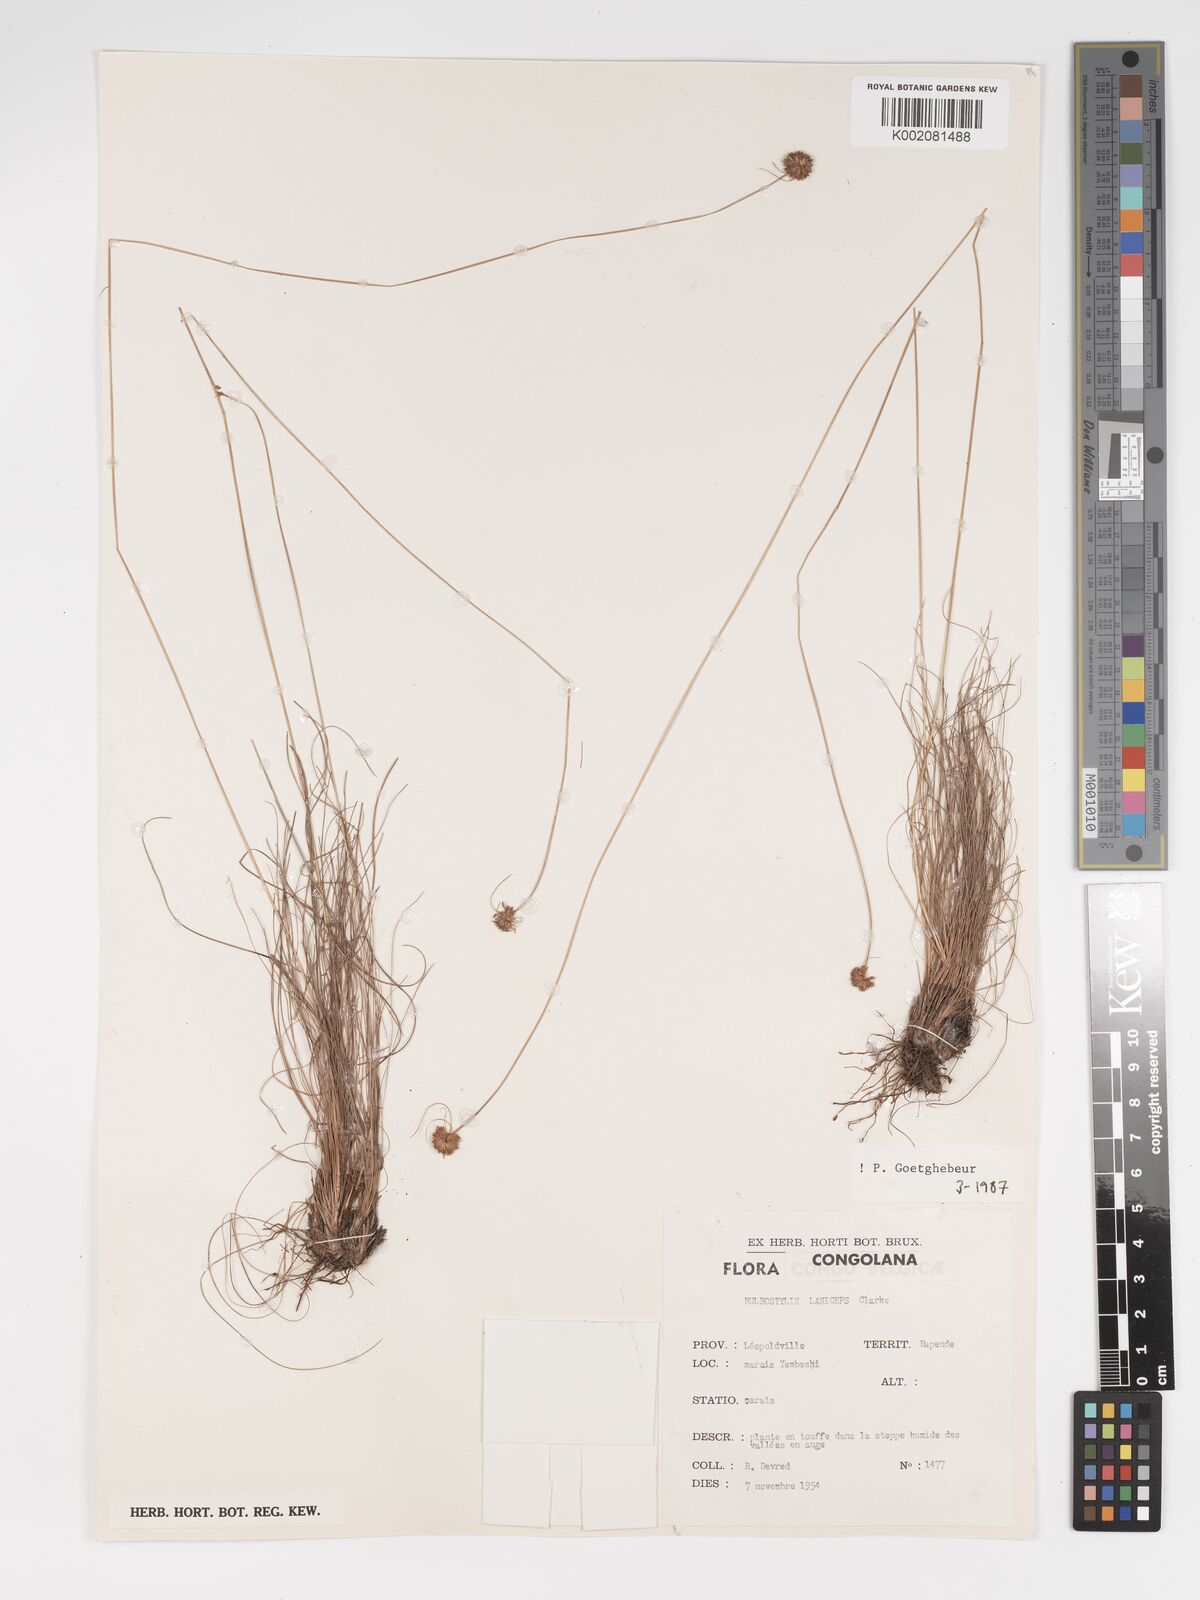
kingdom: Plantae
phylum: Tracheophyta
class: Liliopsida
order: Poales
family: Cyperaceae
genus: Bulbostylis
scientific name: Bulbostylis laniceps
